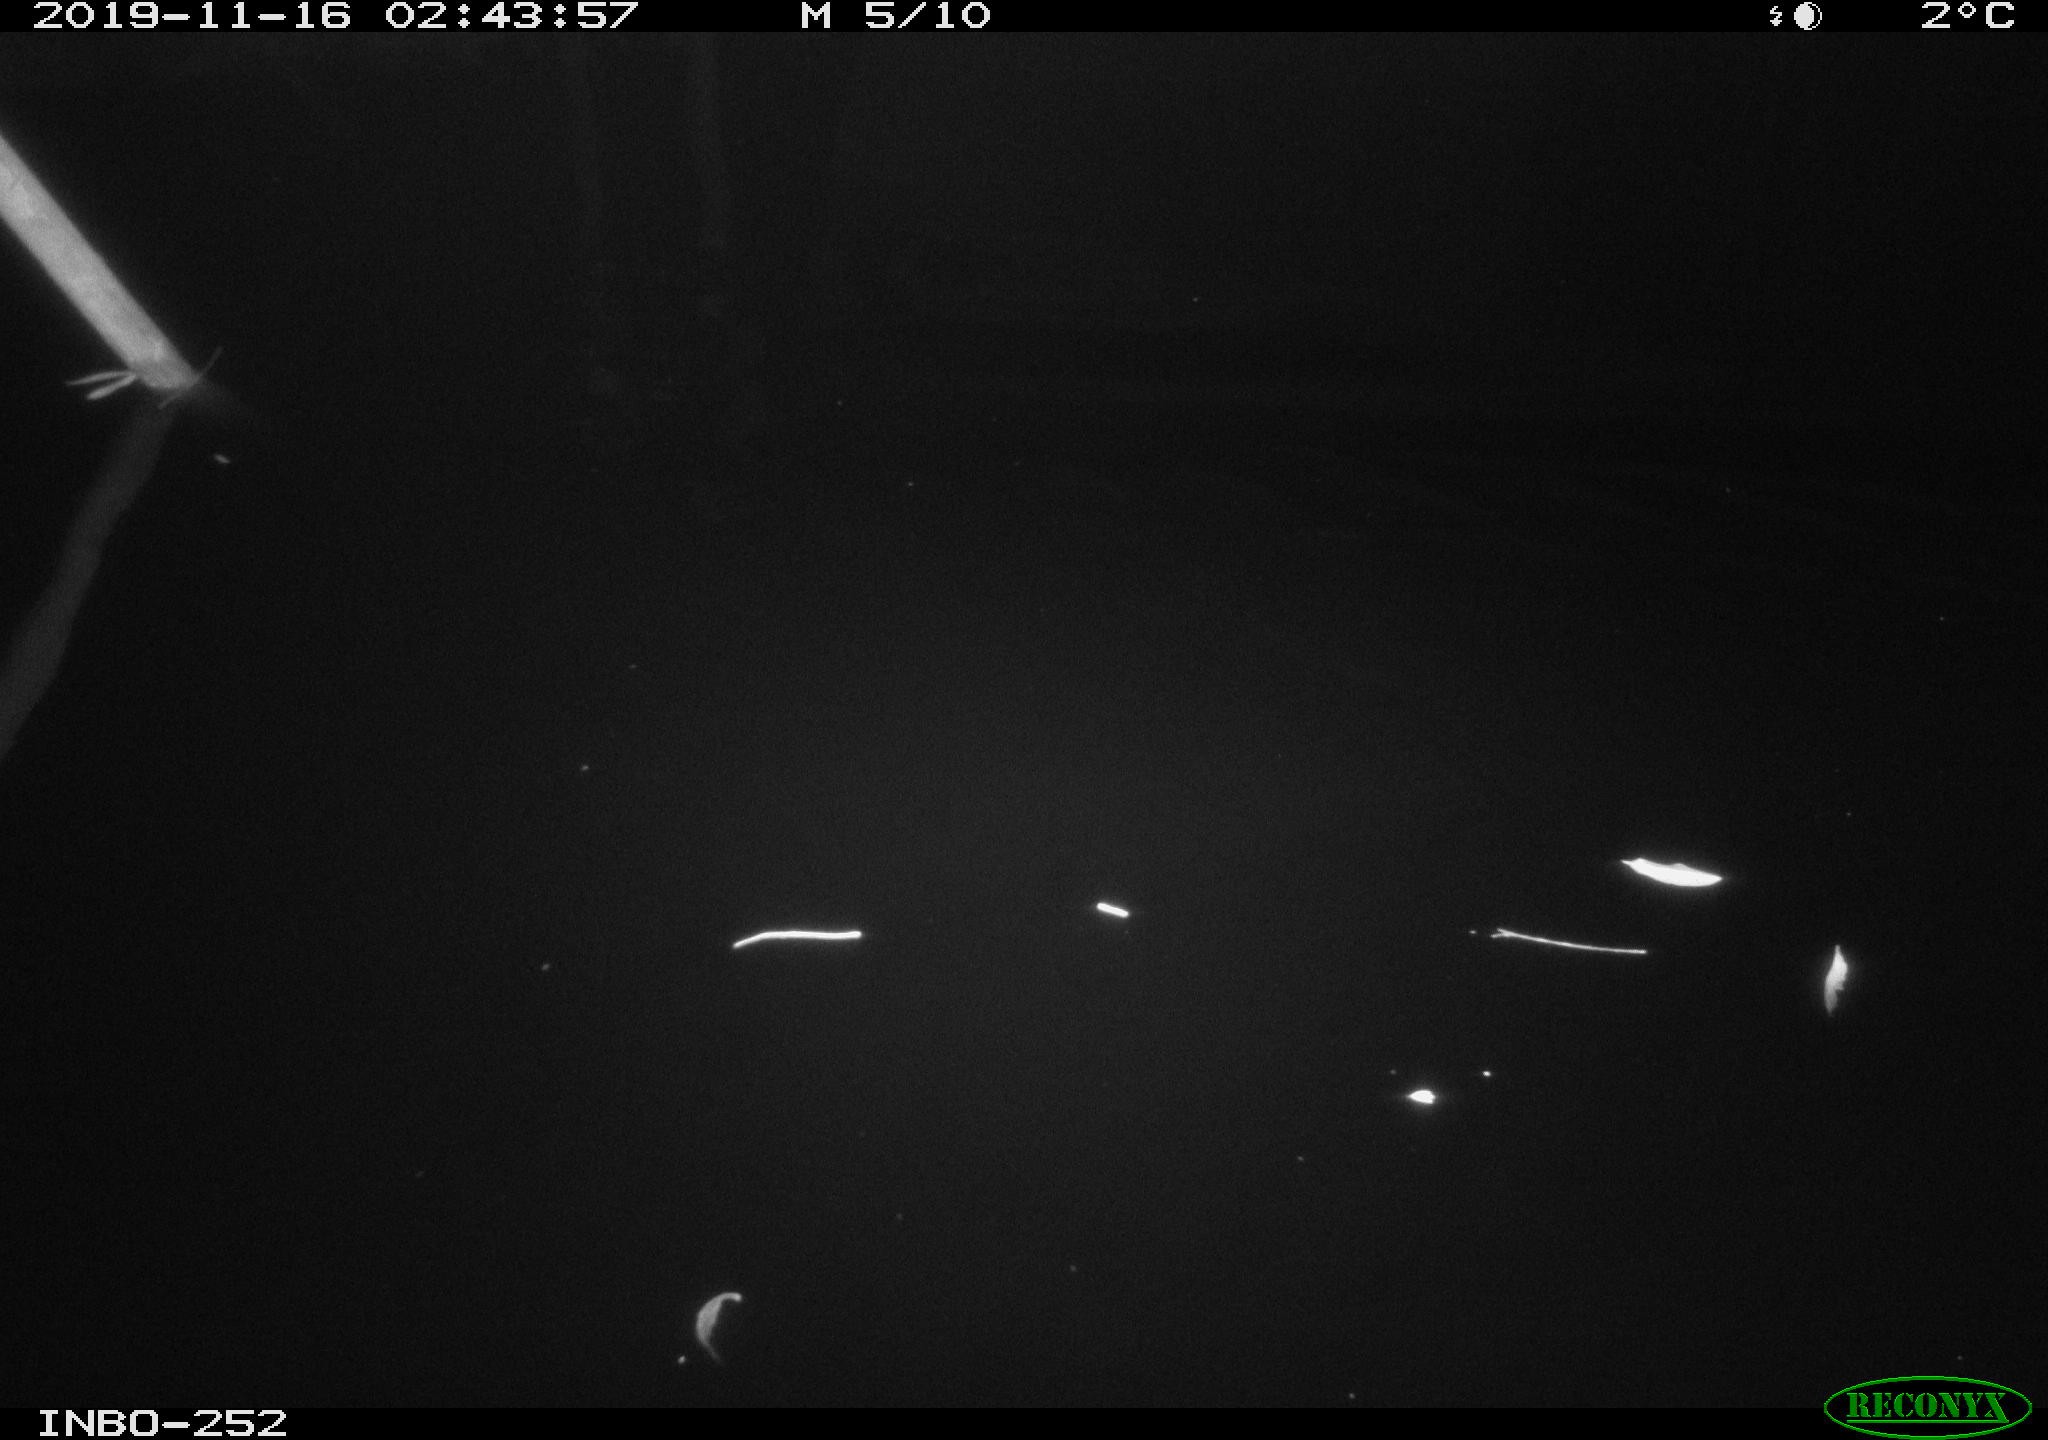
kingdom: Animalia
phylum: Chordata
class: Aves
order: Anseriformes
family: Anatidae
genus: Anas
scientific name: Anas platyrhynchos
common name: Mallard
